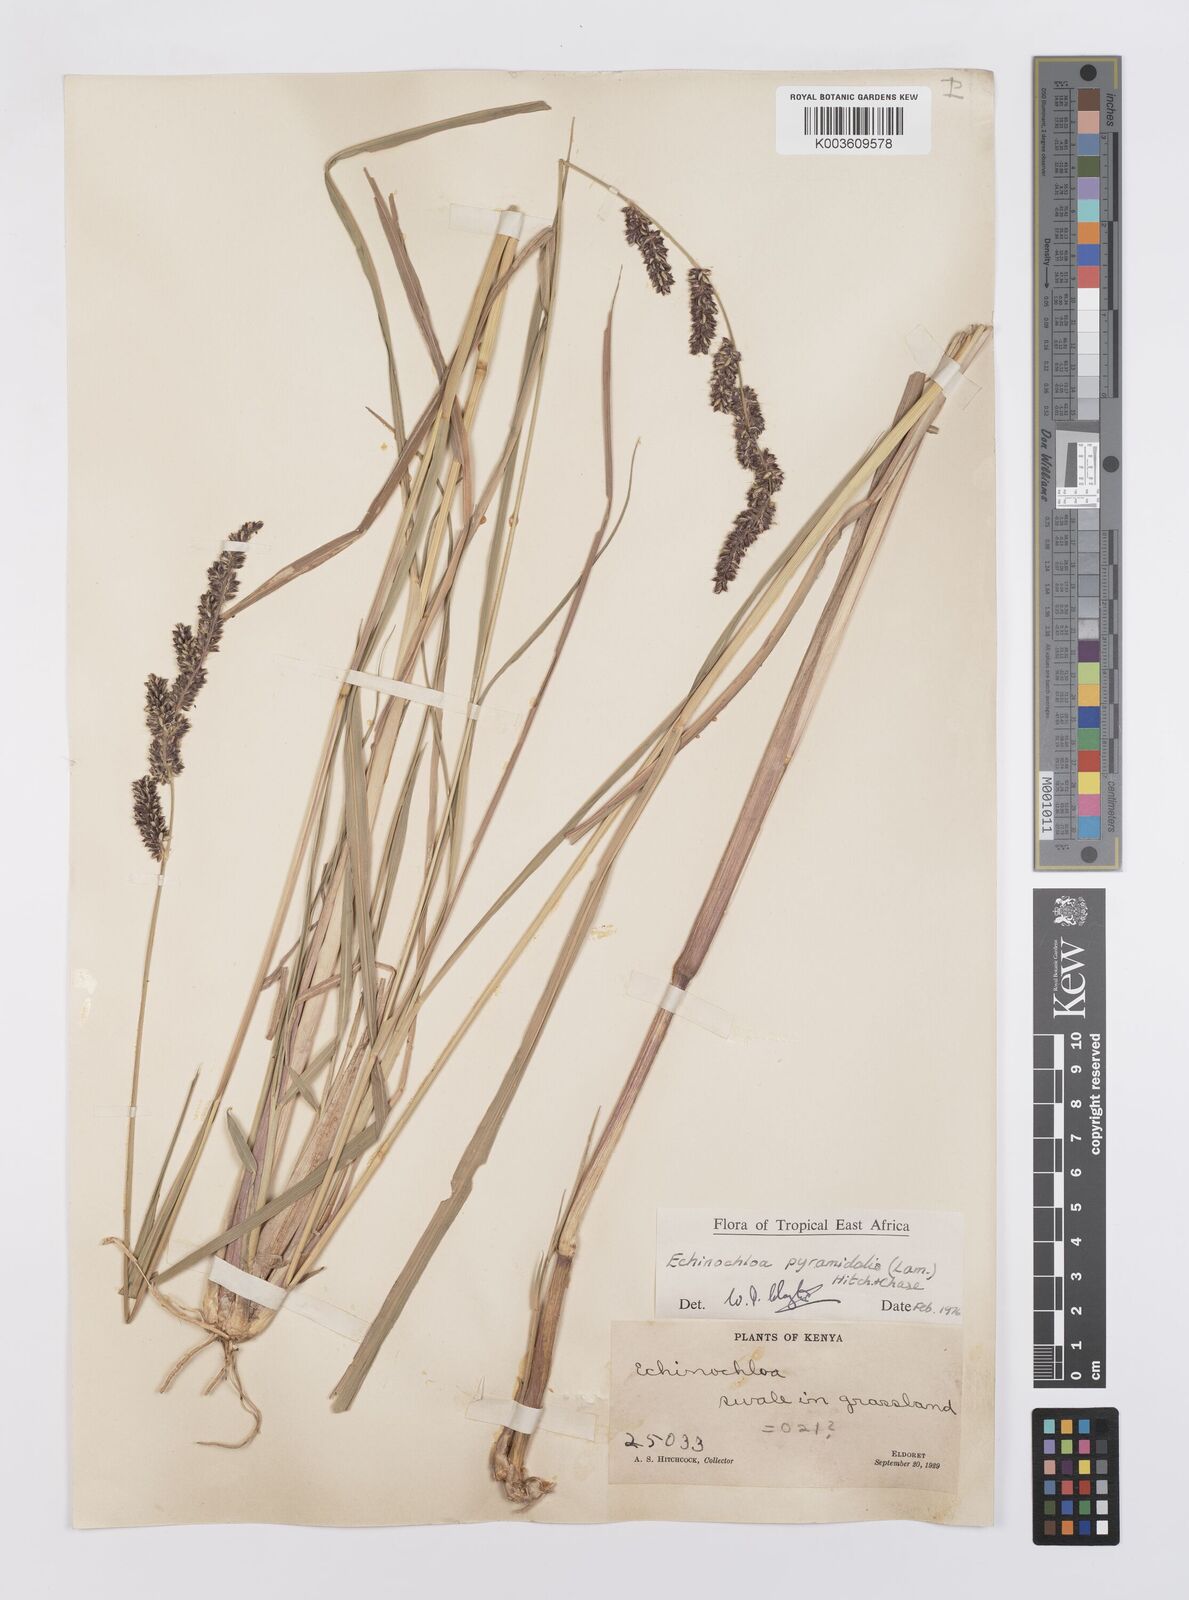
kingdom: Plantae
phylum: Tracheophyta
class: Liliopsida
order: Poales
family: Poaceae
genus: Echinochloa
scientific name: Echinochloa pyramidalis
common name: Antelope grass
